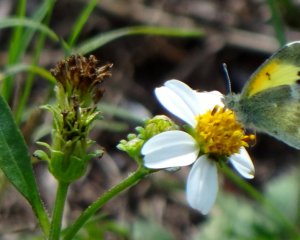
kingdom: Animalia
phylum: Arthropoda
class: Insecta
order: Lepidoptera
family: Pieridae
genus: Nathalis
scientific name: Nathalis iole
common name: Dainty Sulphur
